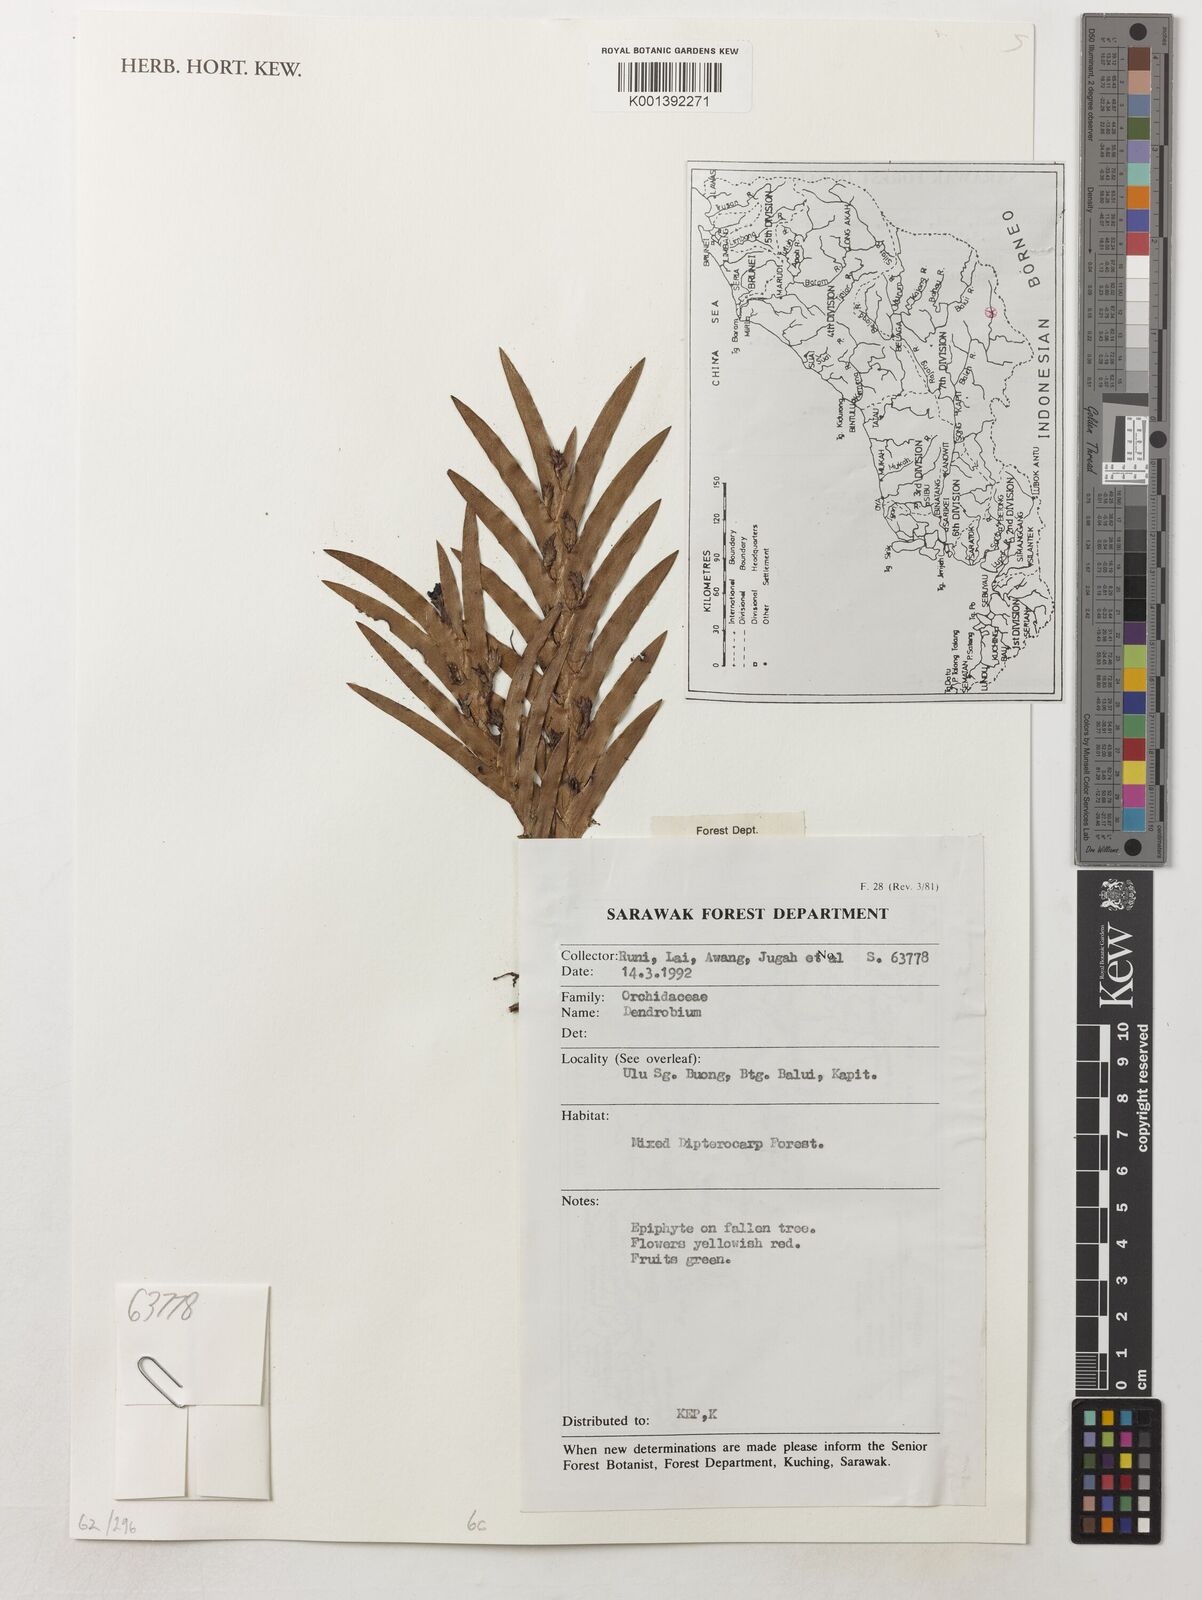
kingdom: Plantae
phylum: Tracheophyta
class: Liliopsida
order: Asparagales
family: Orchidaceae
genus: Dendrobium
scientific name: Dendrobium
